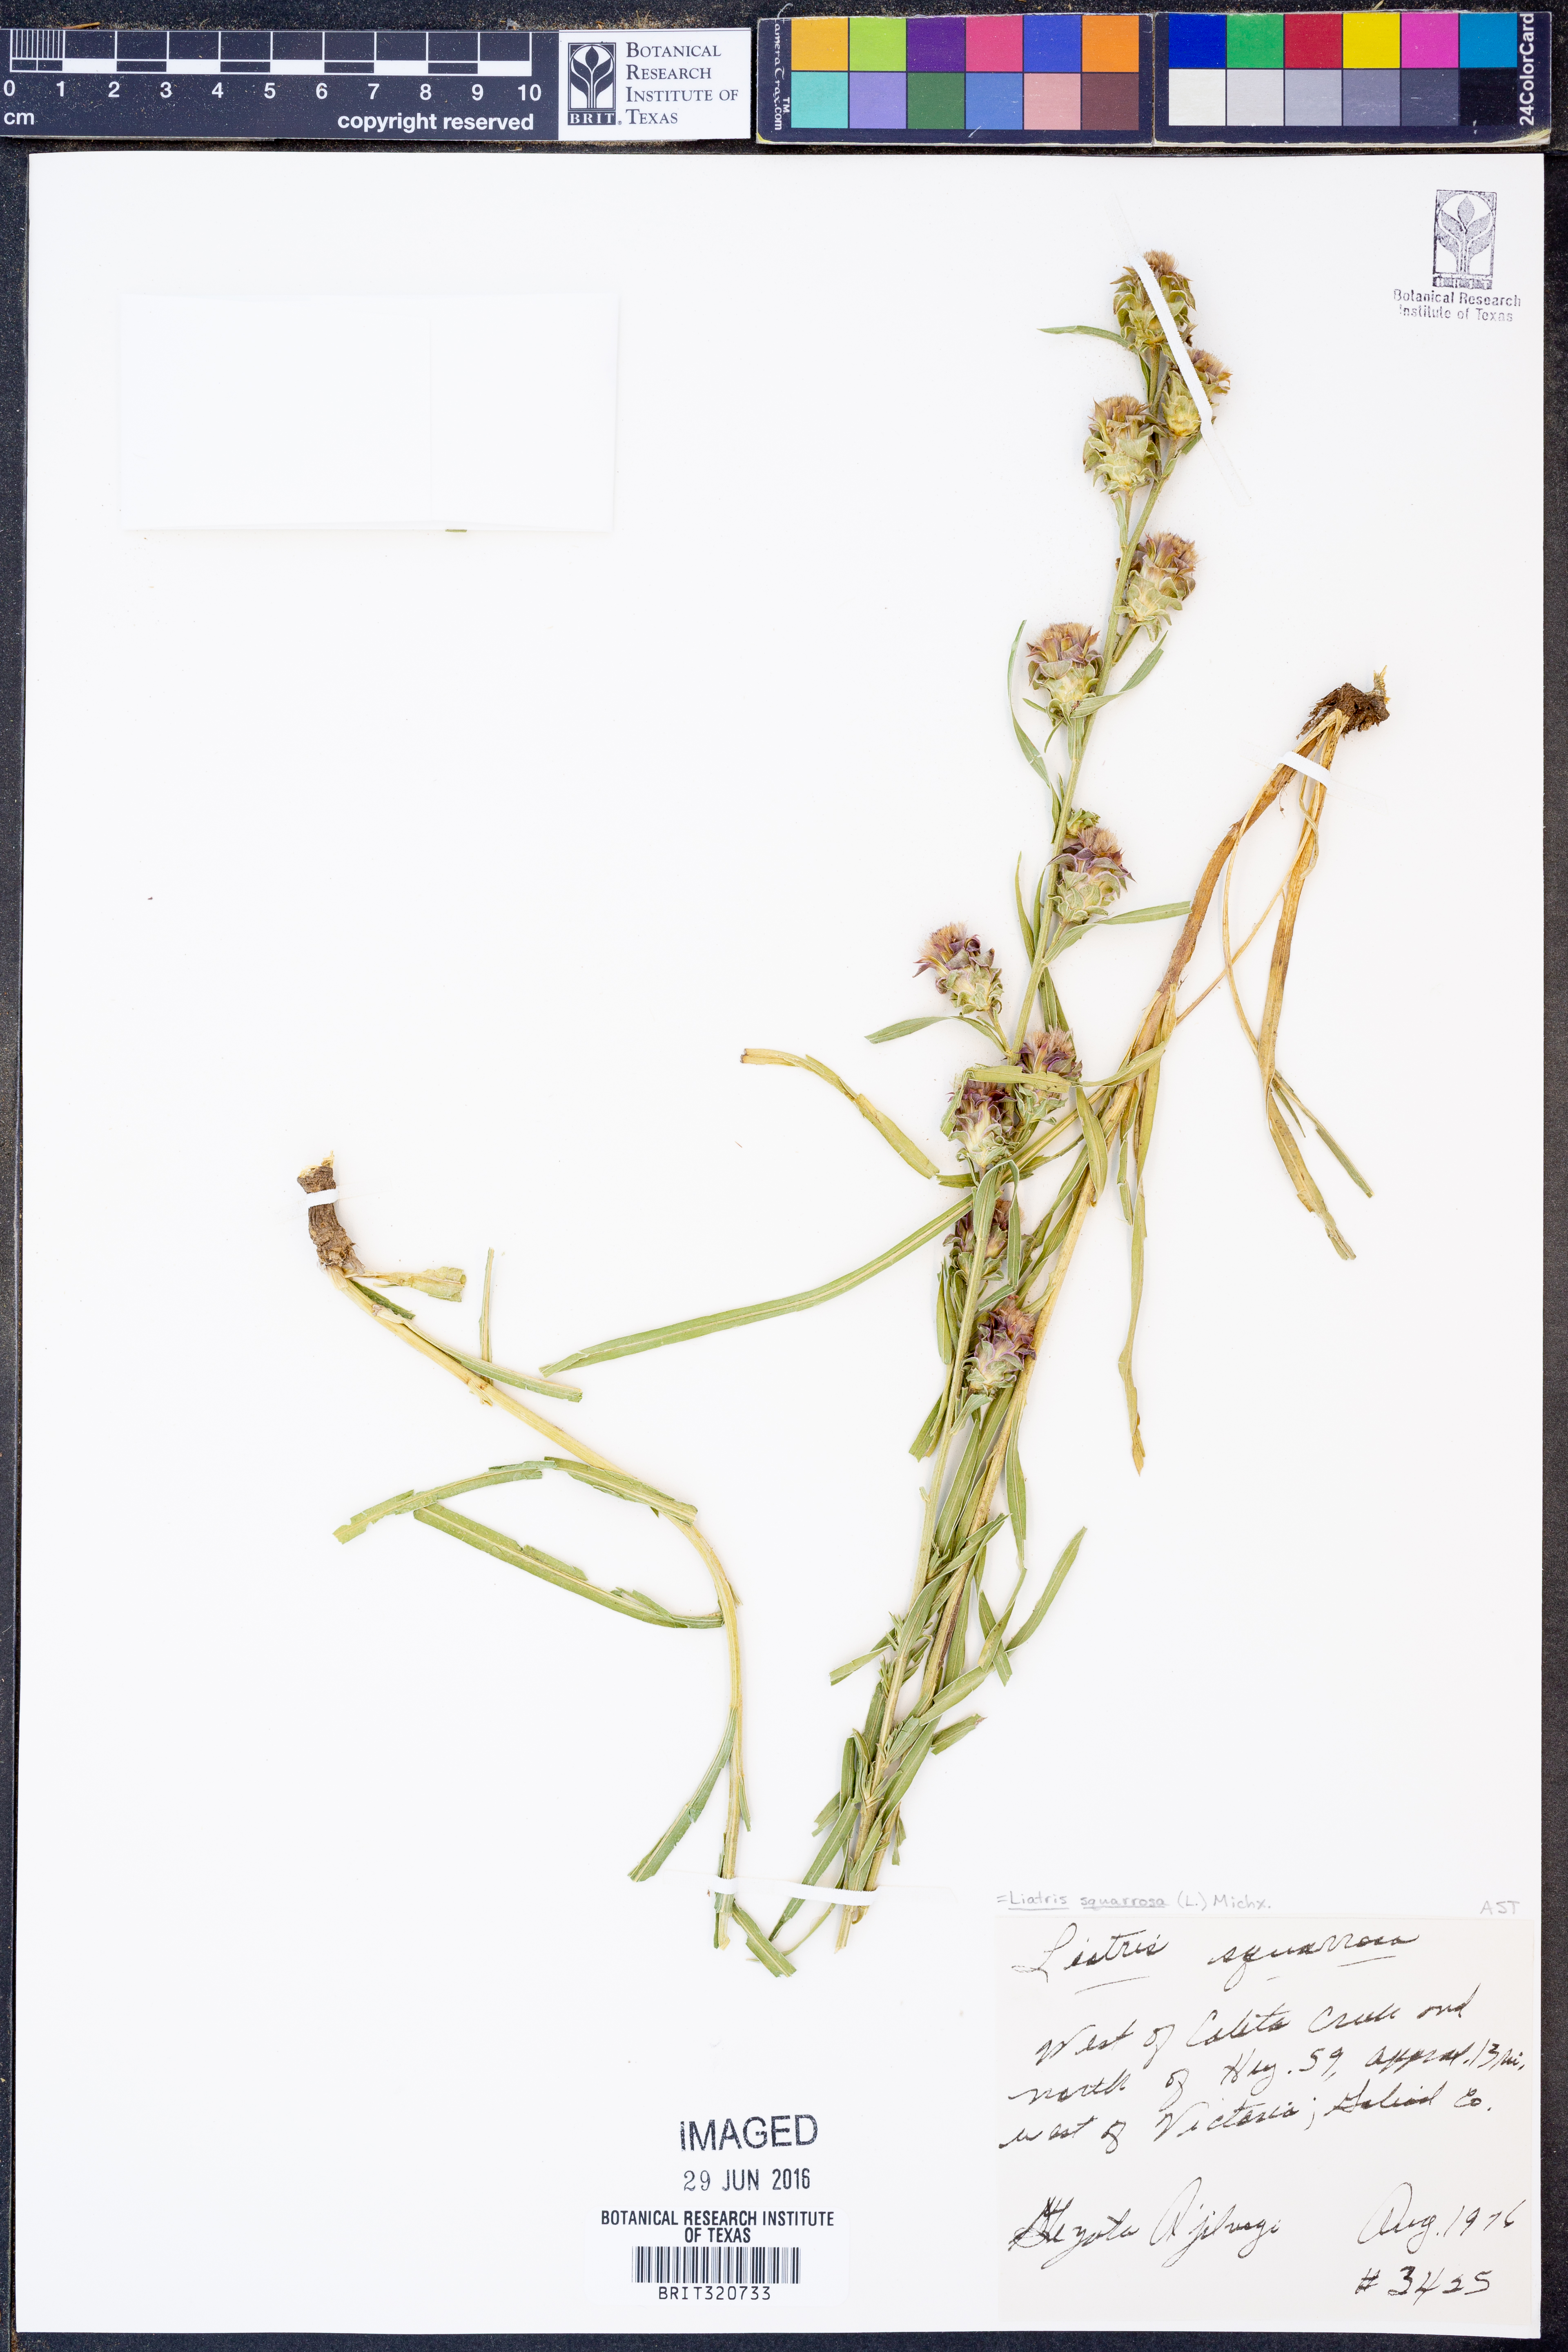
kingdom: Plantae
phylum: Tracheophyta
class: Magnoliopsida
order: Asterales
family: Asteraceae
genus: Liatris
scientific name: Liatris squarrosa
